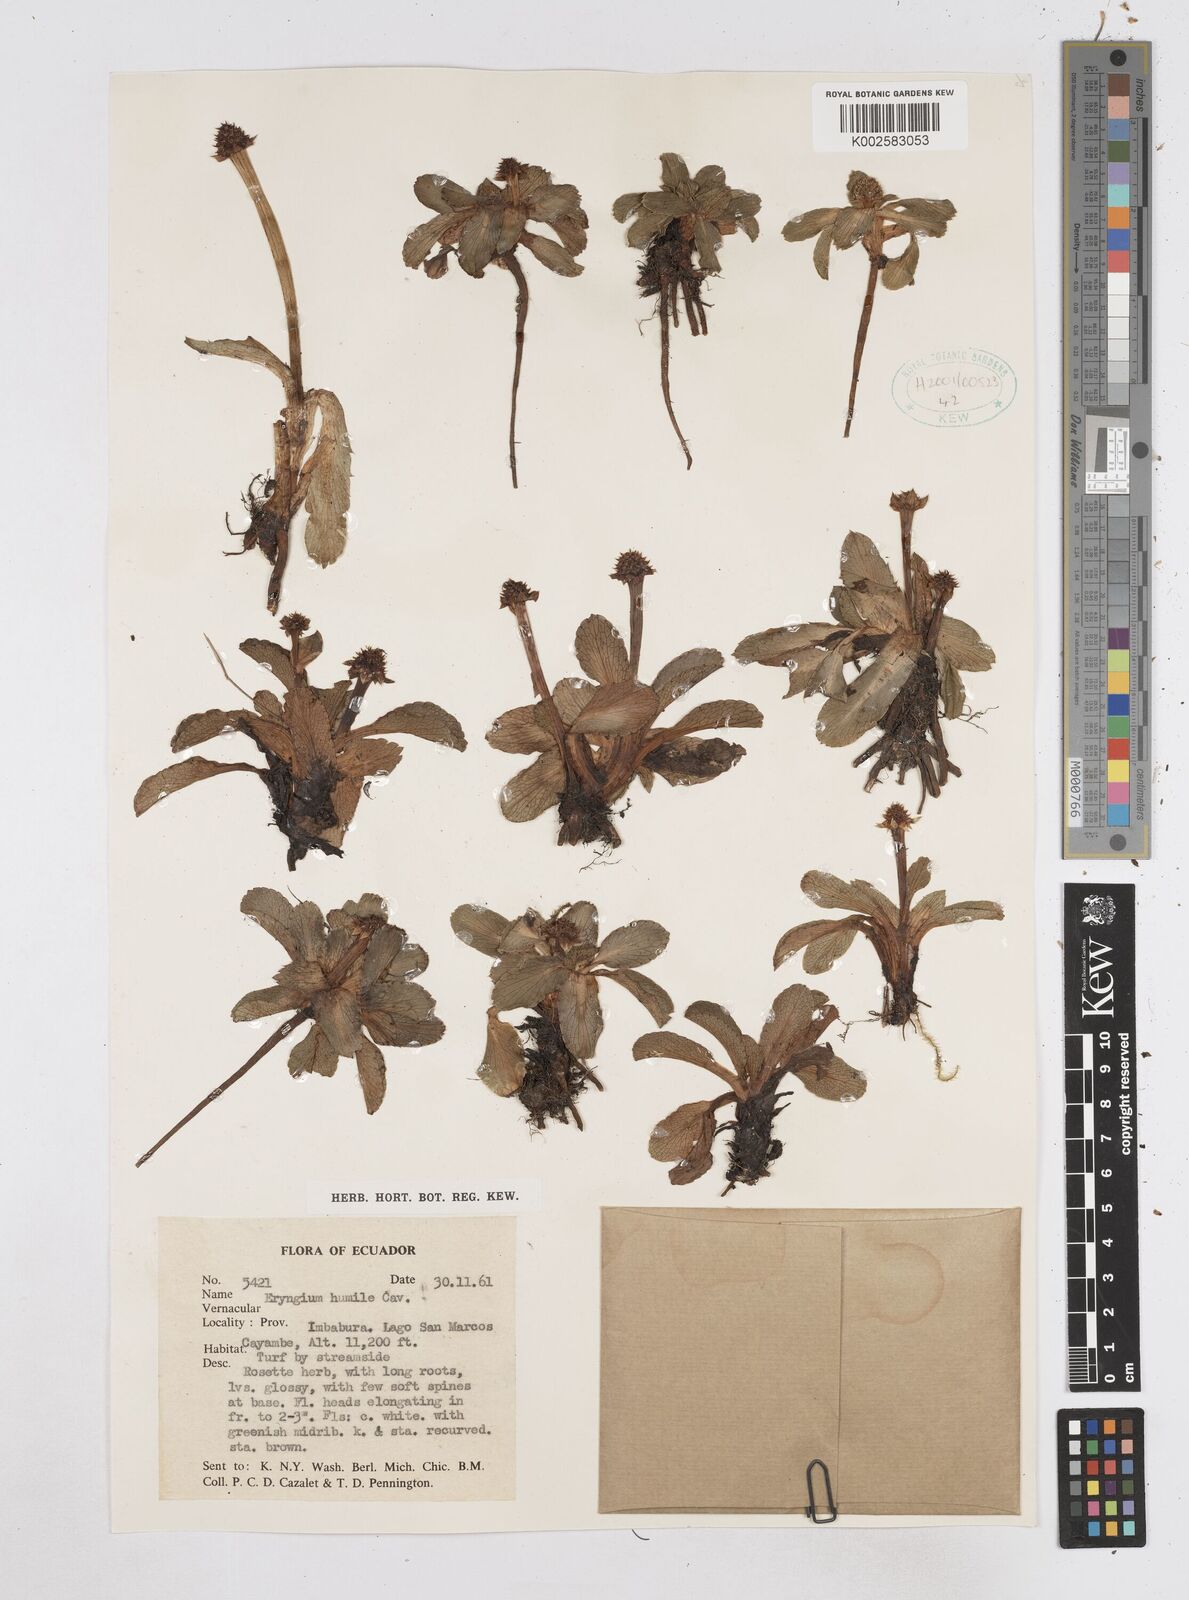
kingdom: Plantae
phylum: Tracheophyta
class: Magnoliopsida
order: Apiales
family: Apiaceae
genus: Eryngium
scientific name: Eryngium humile
